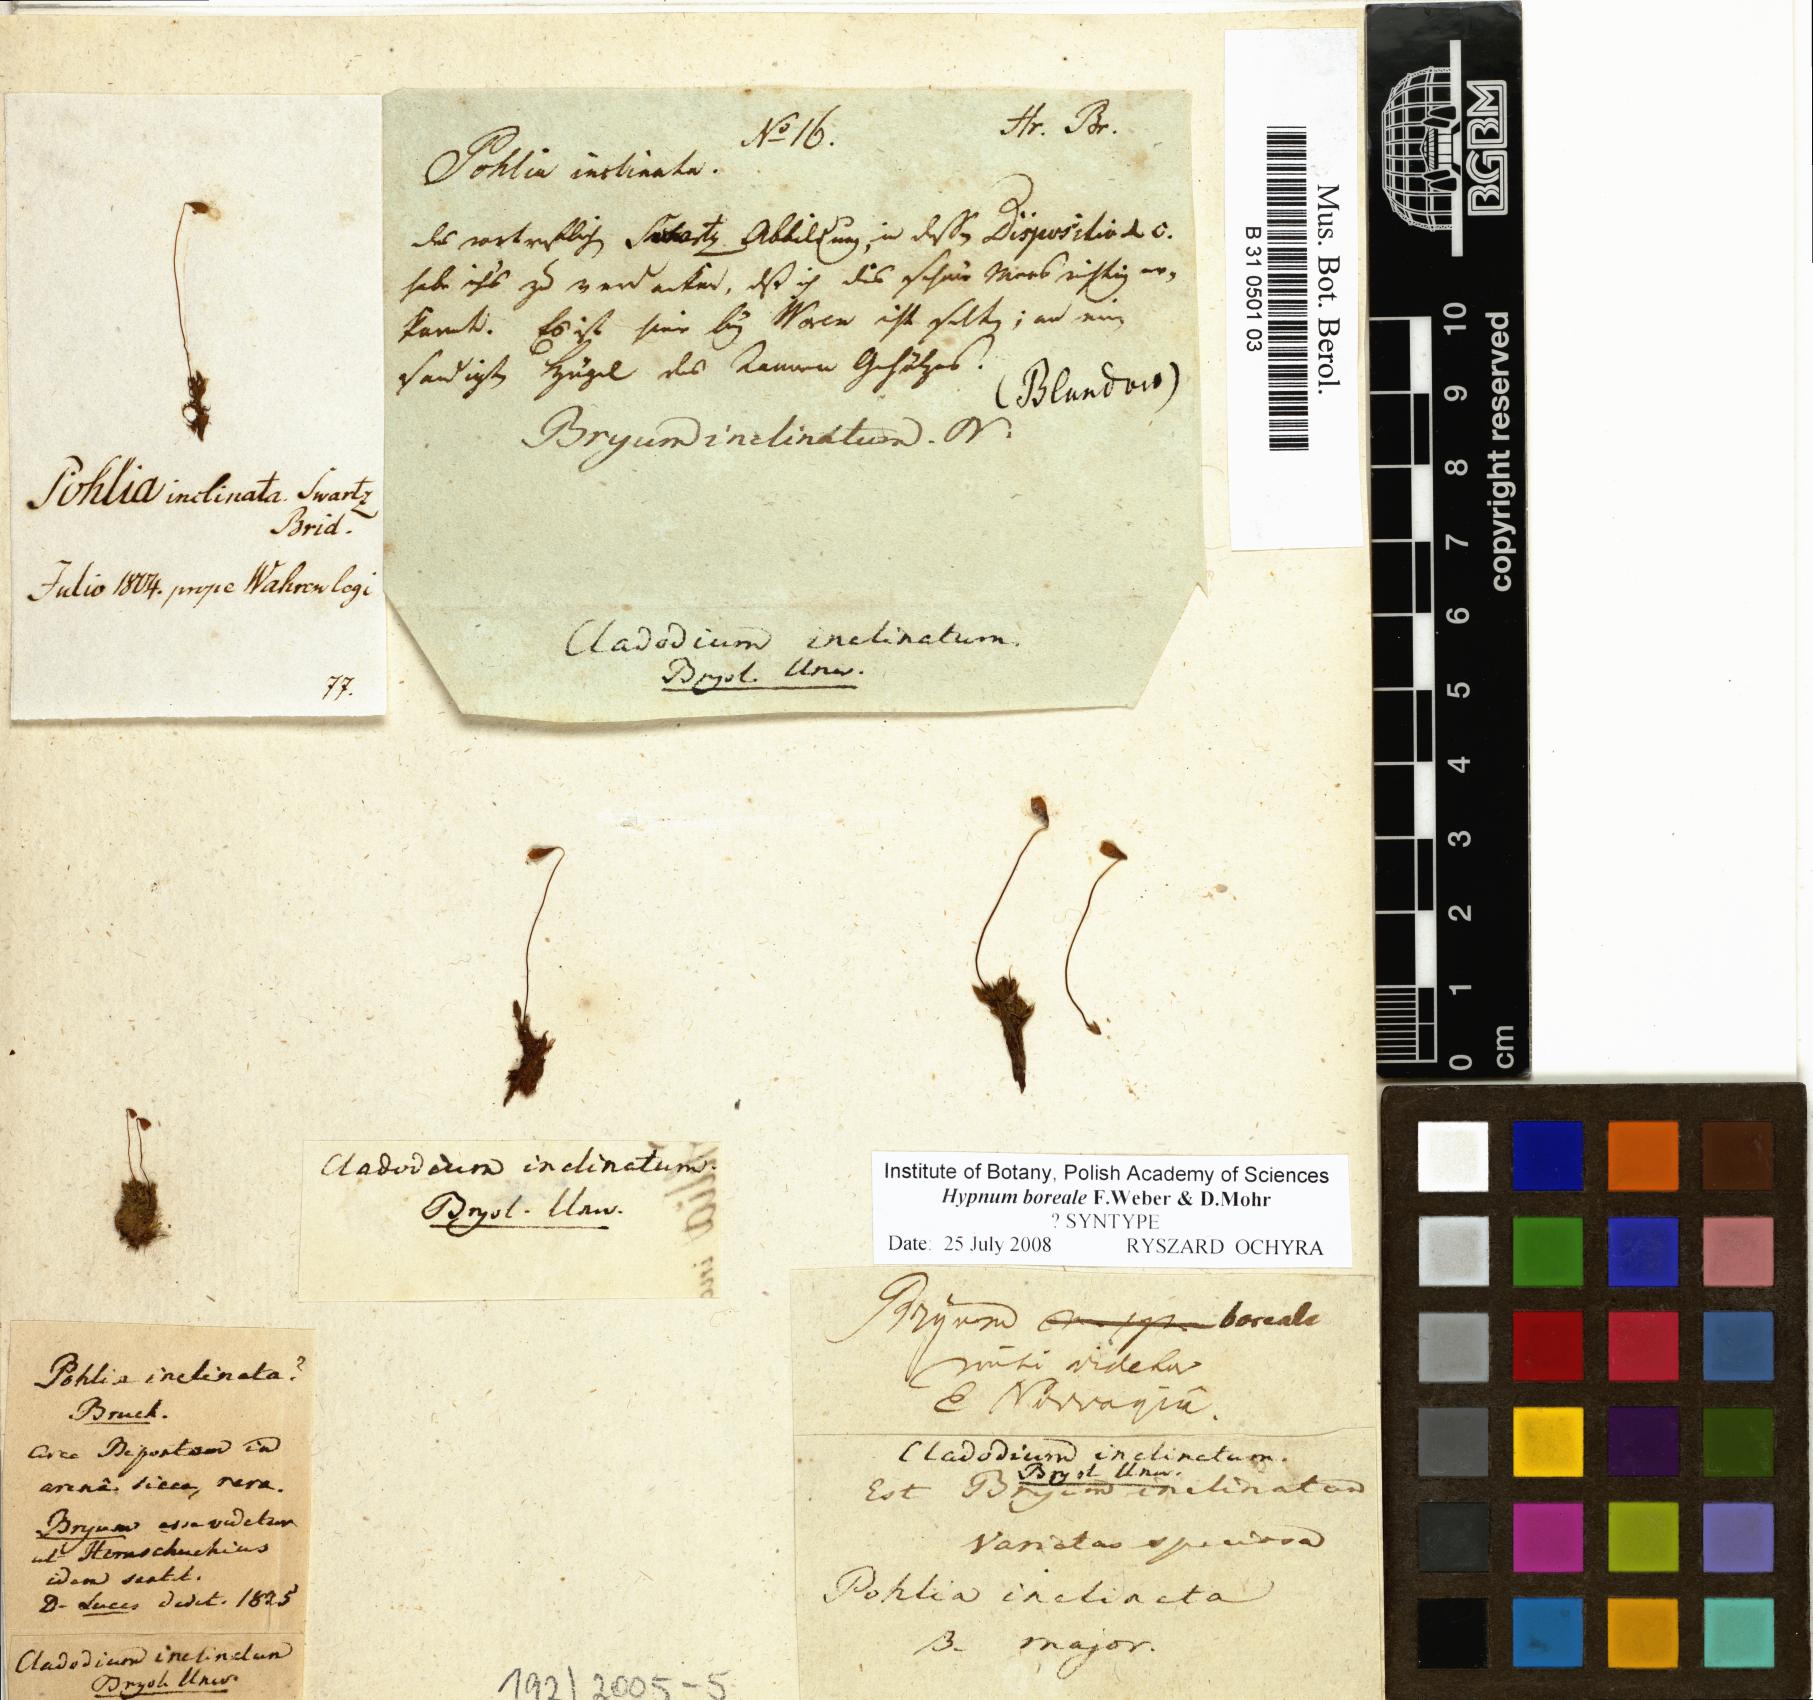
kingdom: Plantae
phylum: Bryophyta
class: Bryopsida
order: Bryales
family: Bryaceae
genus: Ptychostomum
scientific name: Ptychostomum inclinatum
